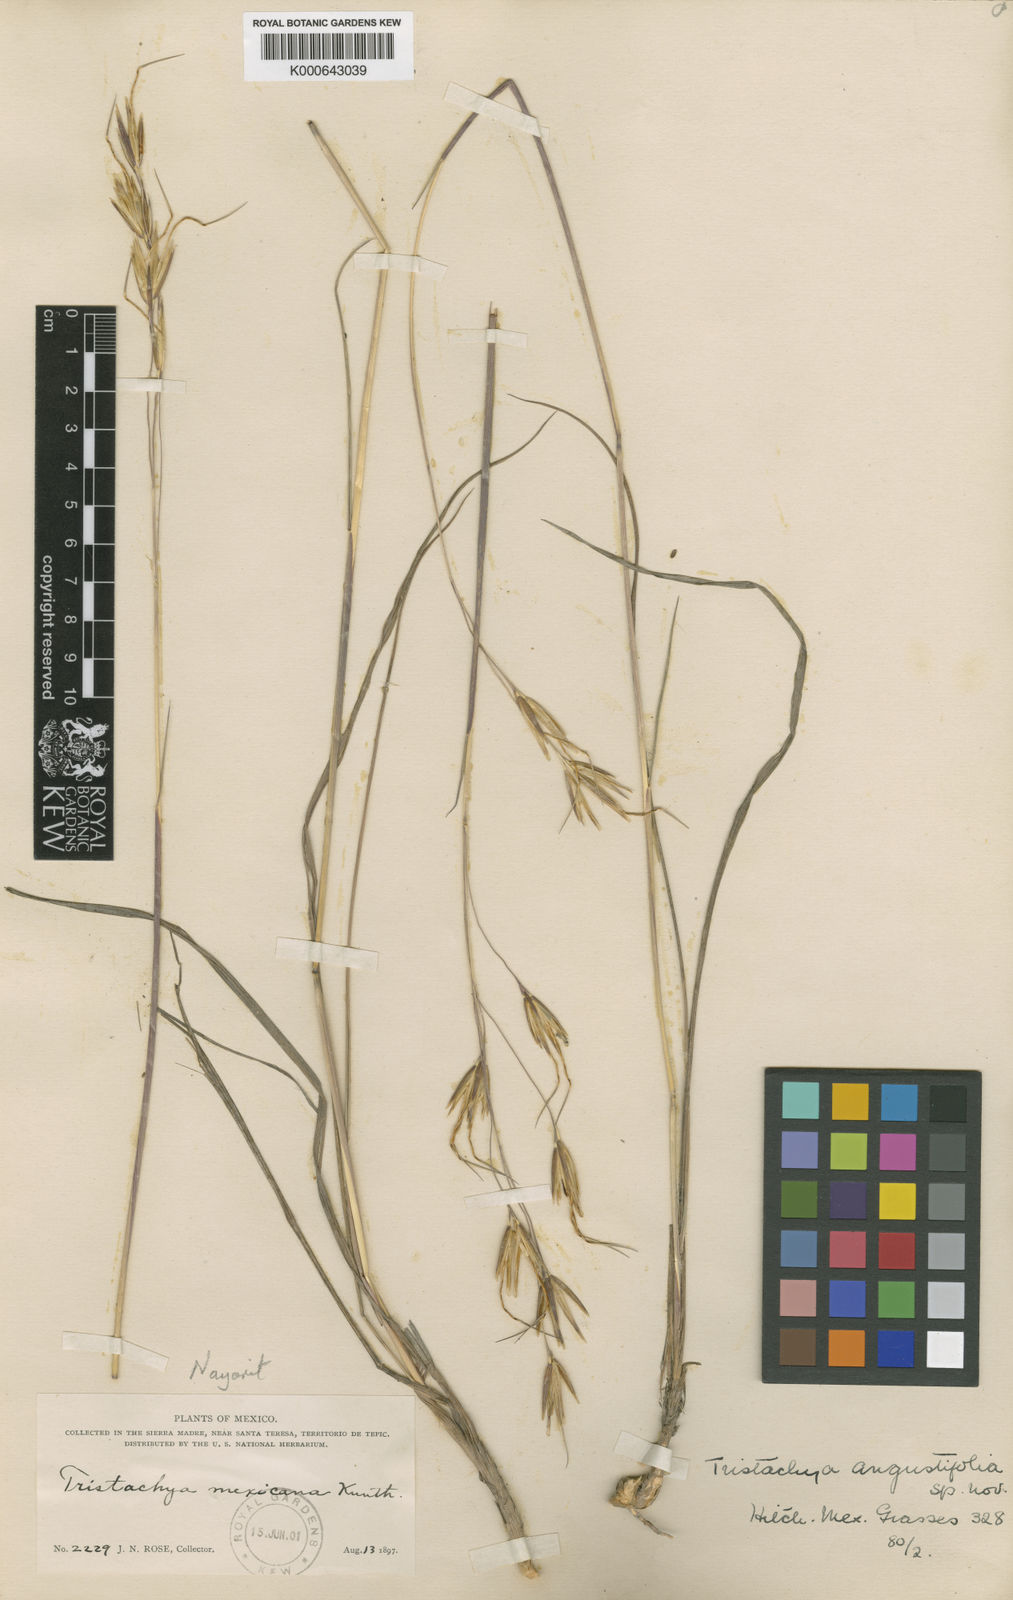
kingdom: Plantae
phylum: Tracheophyta
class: Liliopsida
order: Poales
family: Poaceae
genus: Tristachya
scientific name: Tristachya angustifolia
